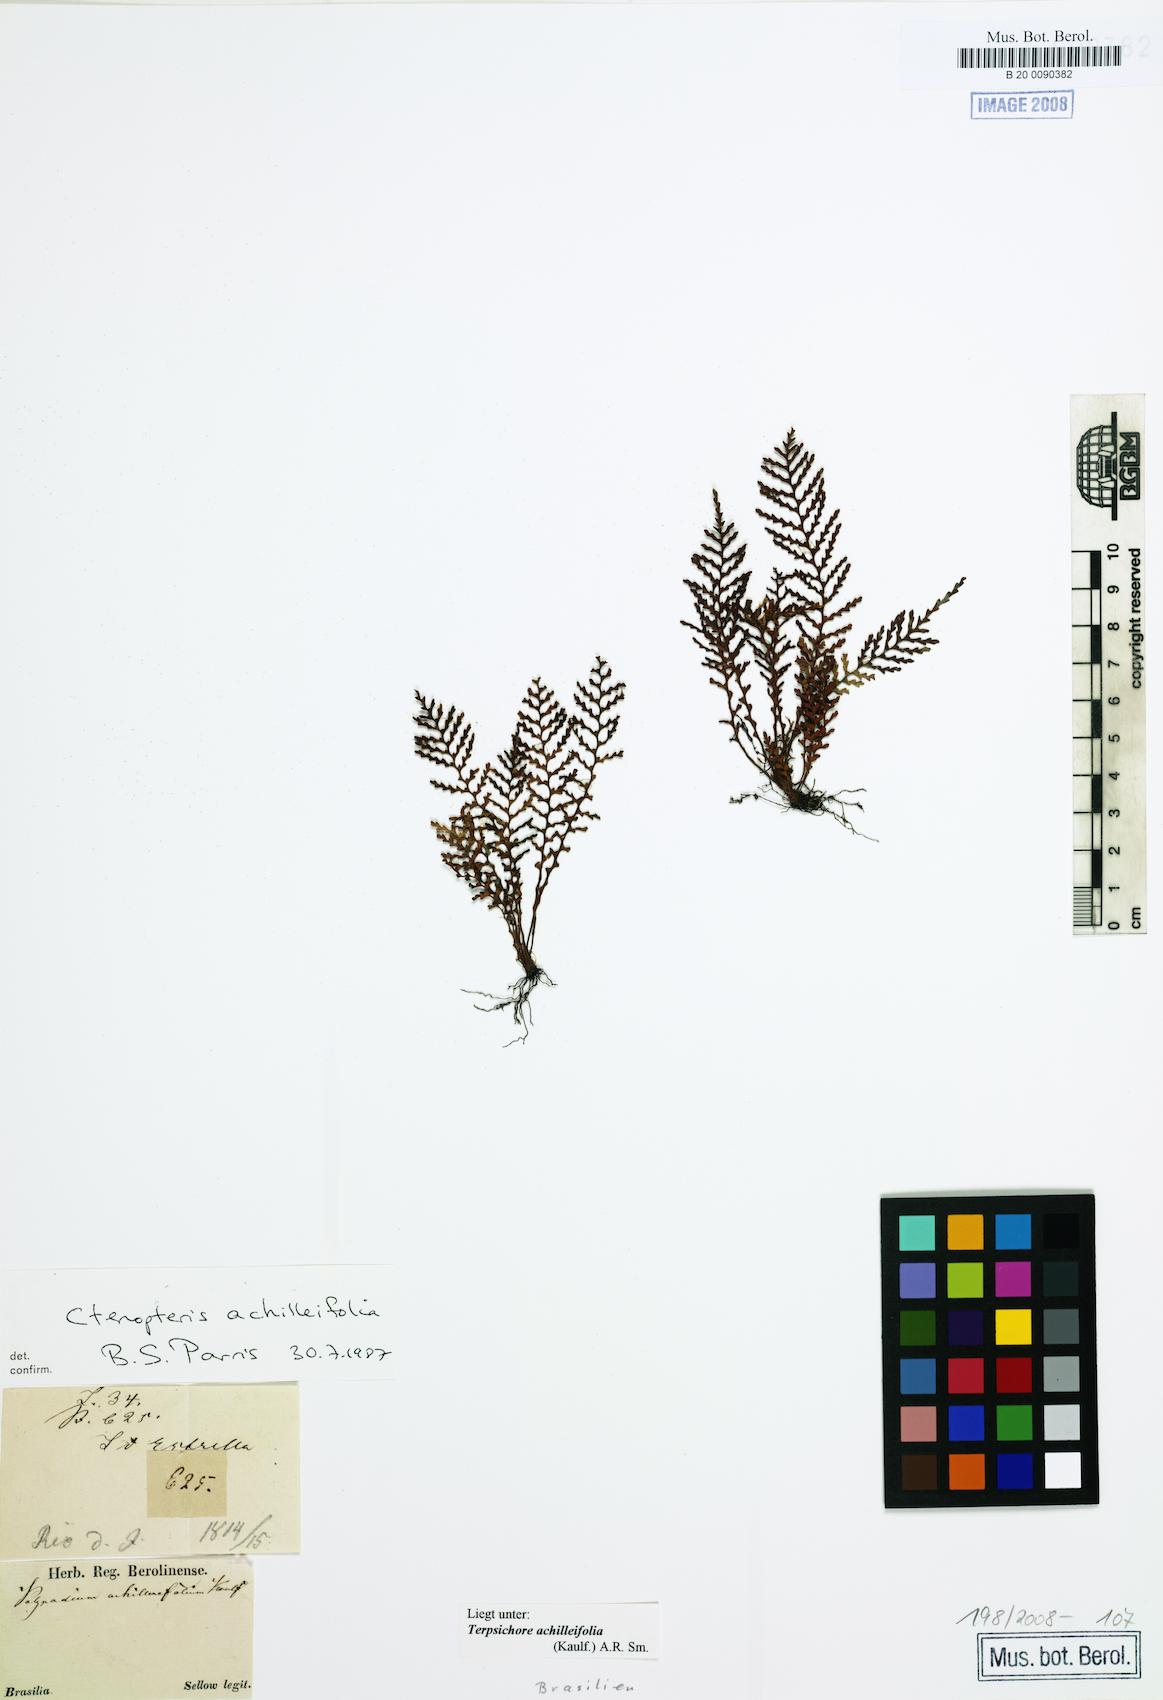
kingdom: Plantae
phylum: Tracheophyta
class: Polypodiopsida
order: Polypodiales
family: Polypodiaceae
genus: Moranopteris
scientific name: Moranopteris achilleifolia
